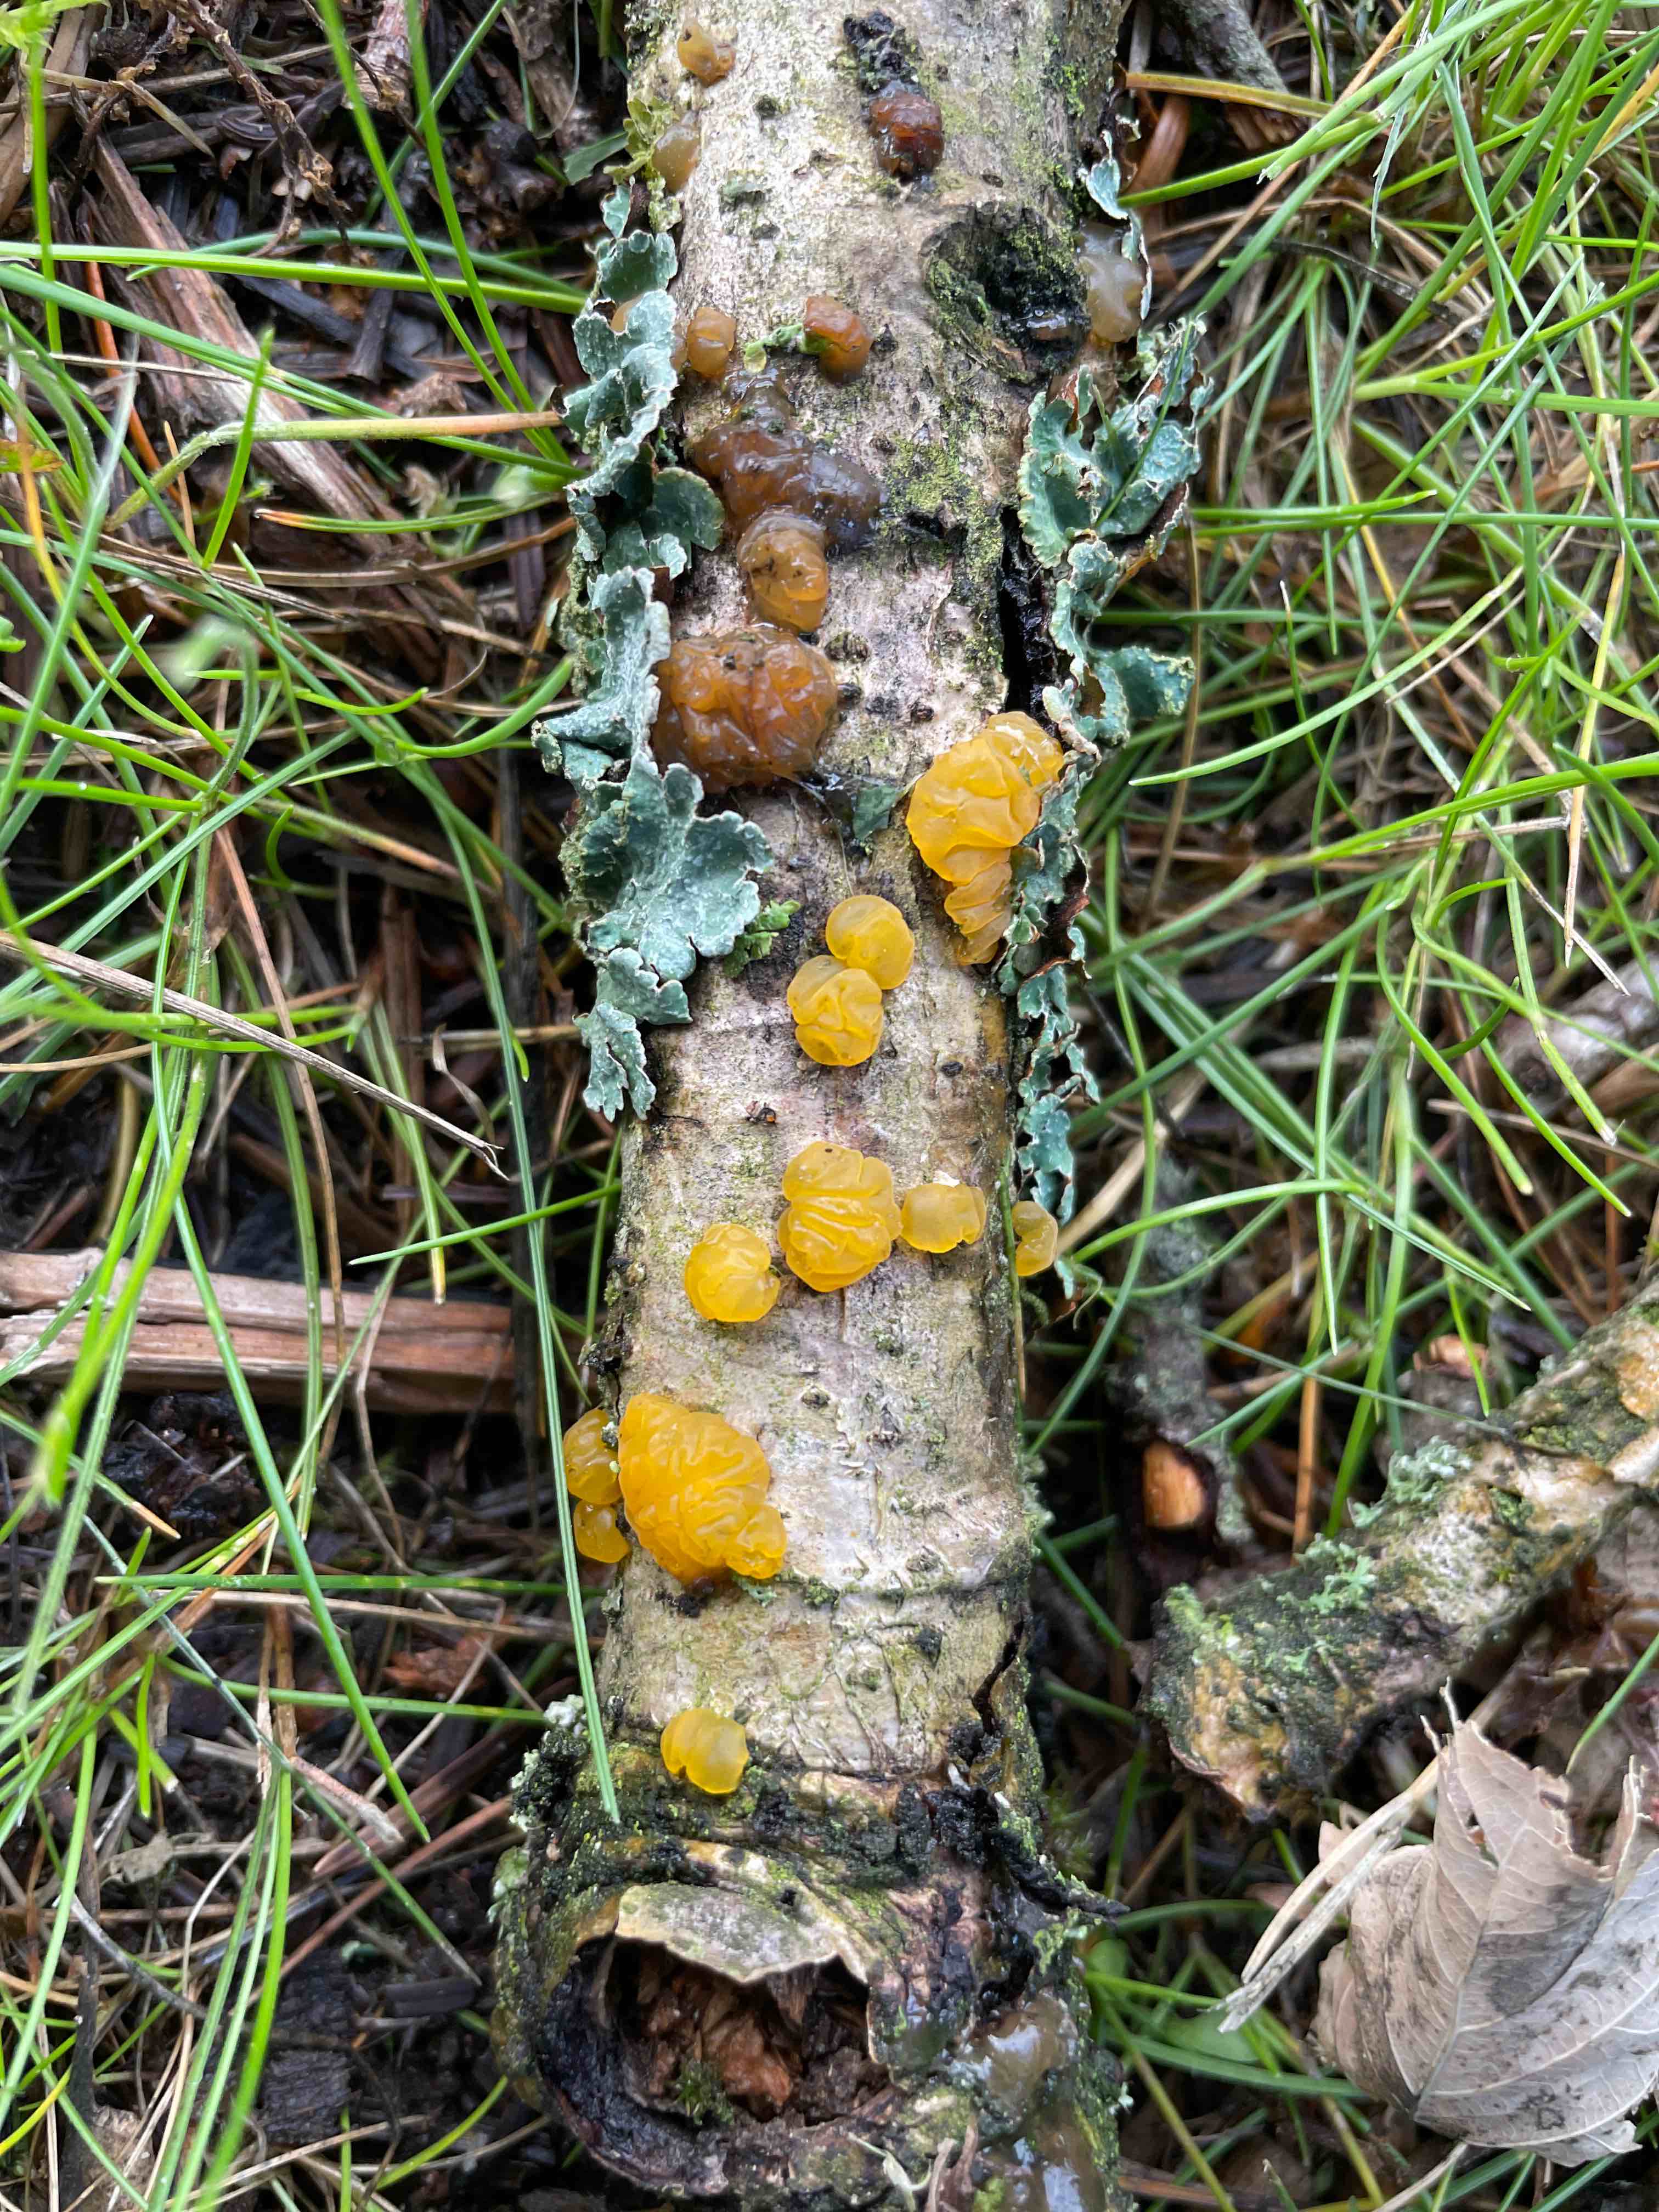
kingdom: Fungi
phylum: Basidiomycota
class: Dacrymycetes
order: Dacrymycetales
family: Dacrymycetaceae
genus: Dacrymyces
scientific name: Dacrymyces lacrymalis
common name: rynket tåresvamp
